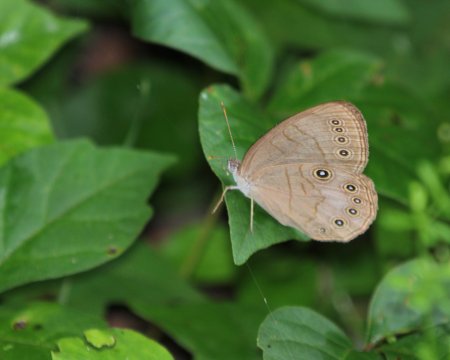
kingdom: Animalia
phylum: Arthropoda
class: Insecta
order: Lepidoptera
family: Nymphalidae
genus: Lethe
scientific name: Lethe eurydice
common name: Appalachian Eyed Brown
